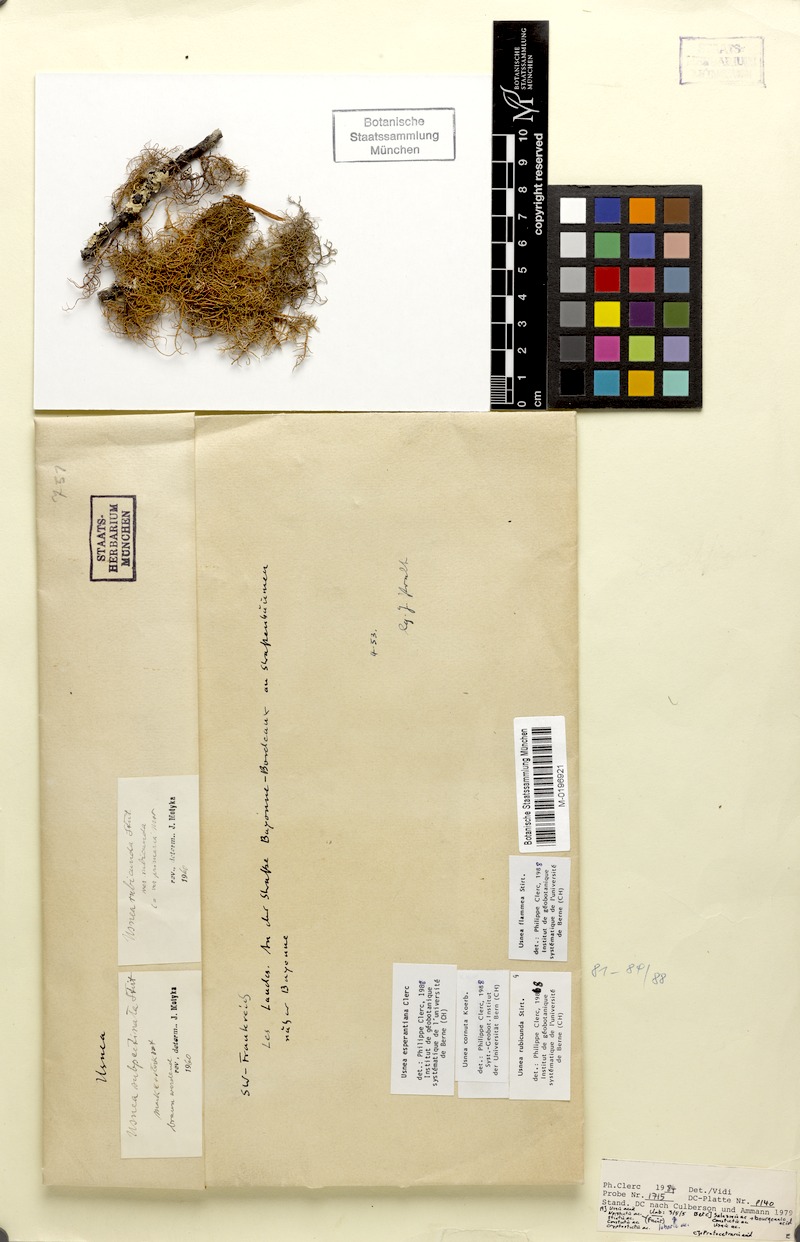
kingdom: Fungi
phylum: Ascomycota
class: Lecanoromycetes
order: Lecanorales
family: Parmeliaceae
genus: Usnea
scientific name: Usnea rubicunda
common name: Red beard lichen
